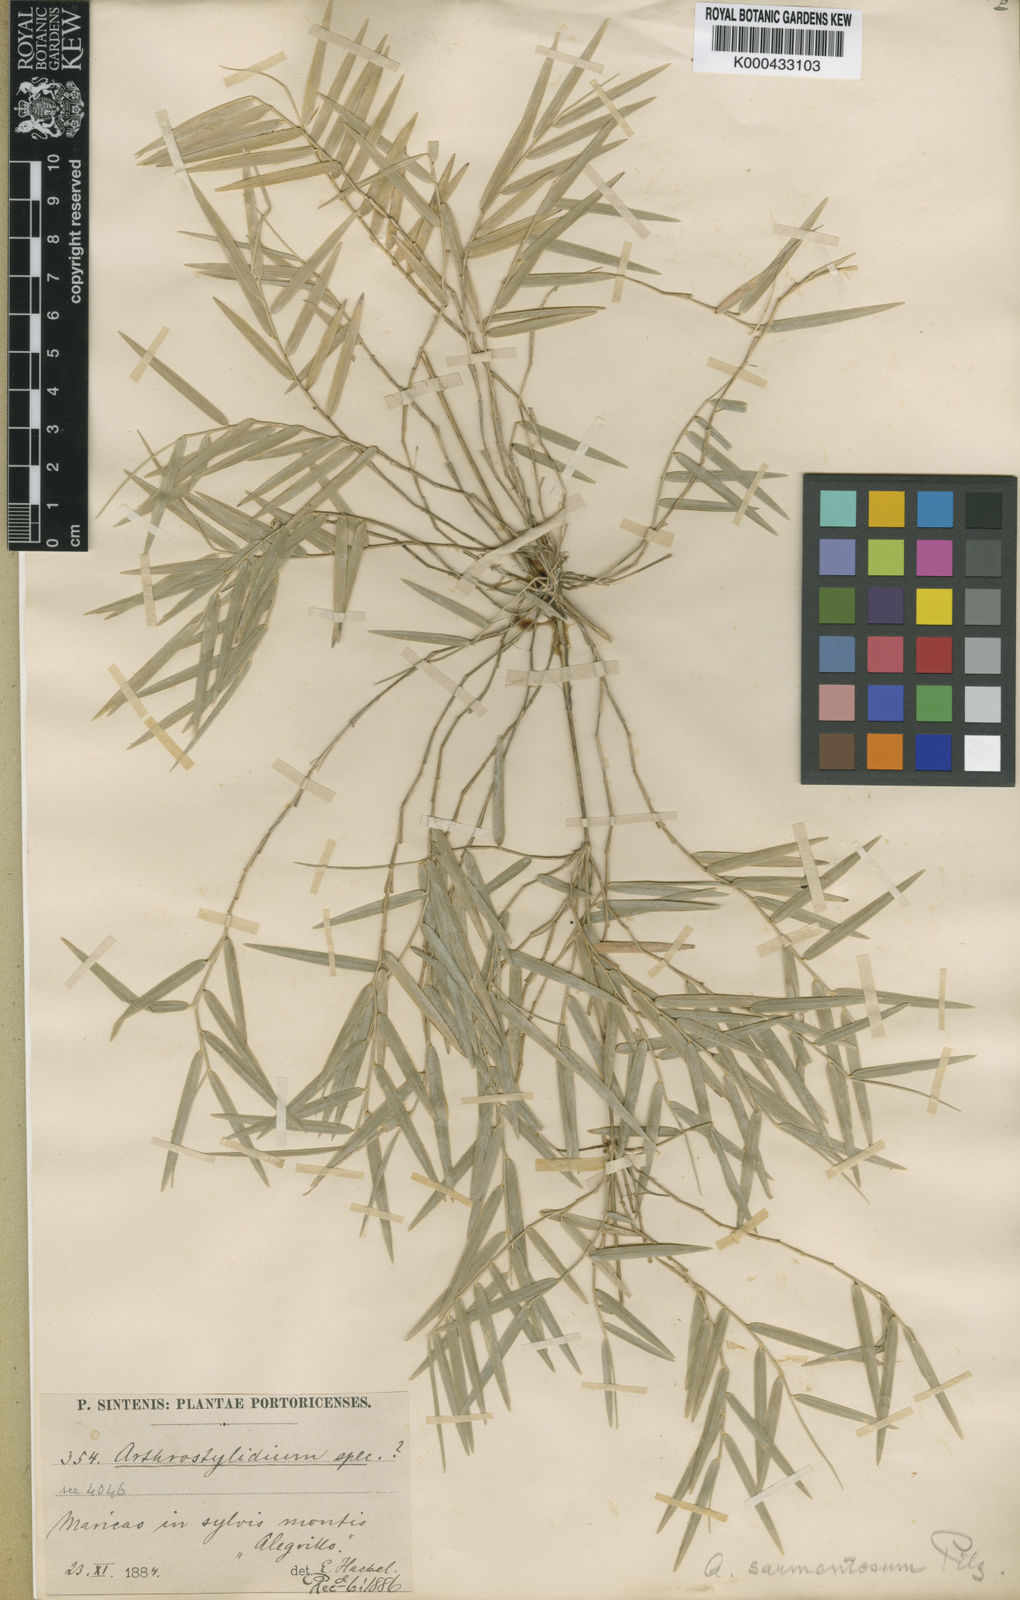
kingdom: Plantae
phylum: Tracheophyta
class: Liliopsida
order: Poales
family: Poaceae
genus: Arthrostylidium
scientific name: Arthrostylidium sarmentosum
